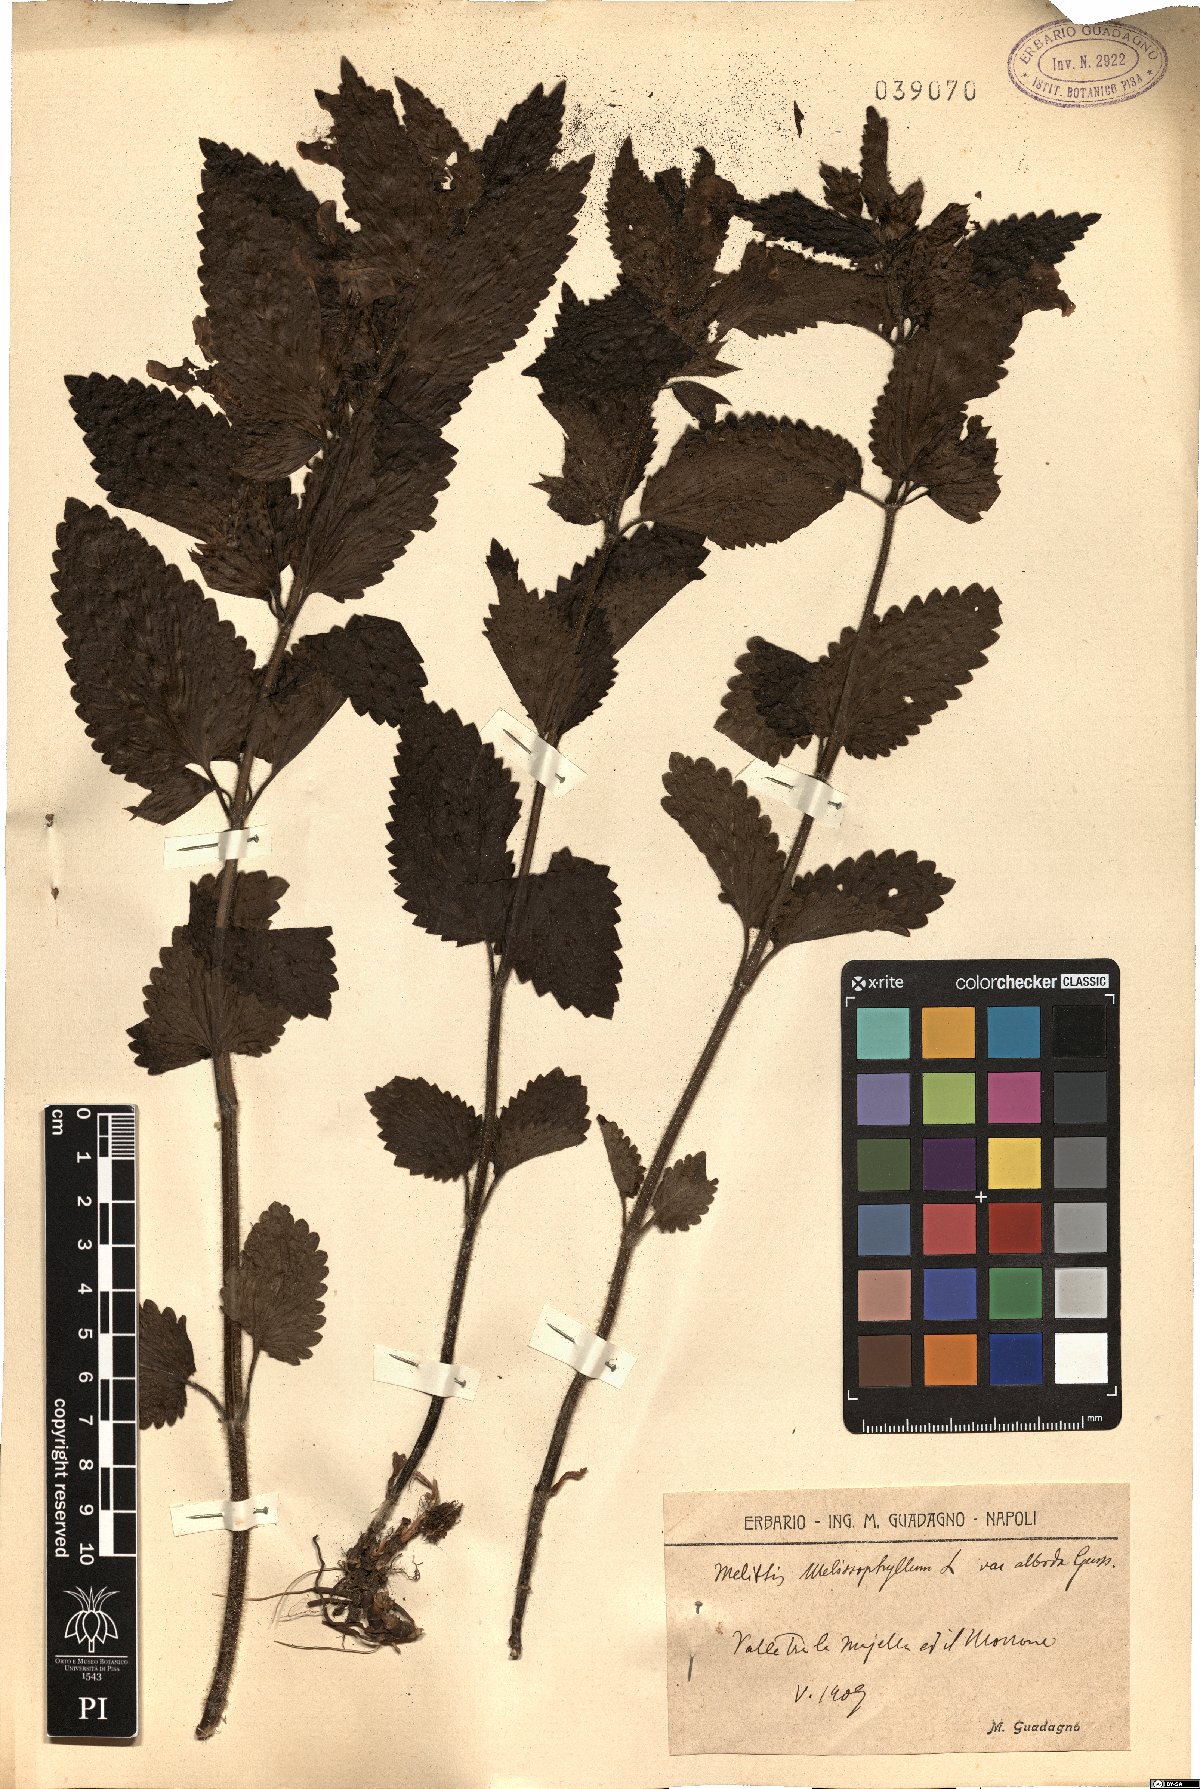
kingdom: Plantae
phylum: Tracheophyta
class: Magnoliopsida
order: Lamiales
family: Lamiaceae
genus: Melittis
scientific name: Melittis melissophyllum
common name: Bastard balm
